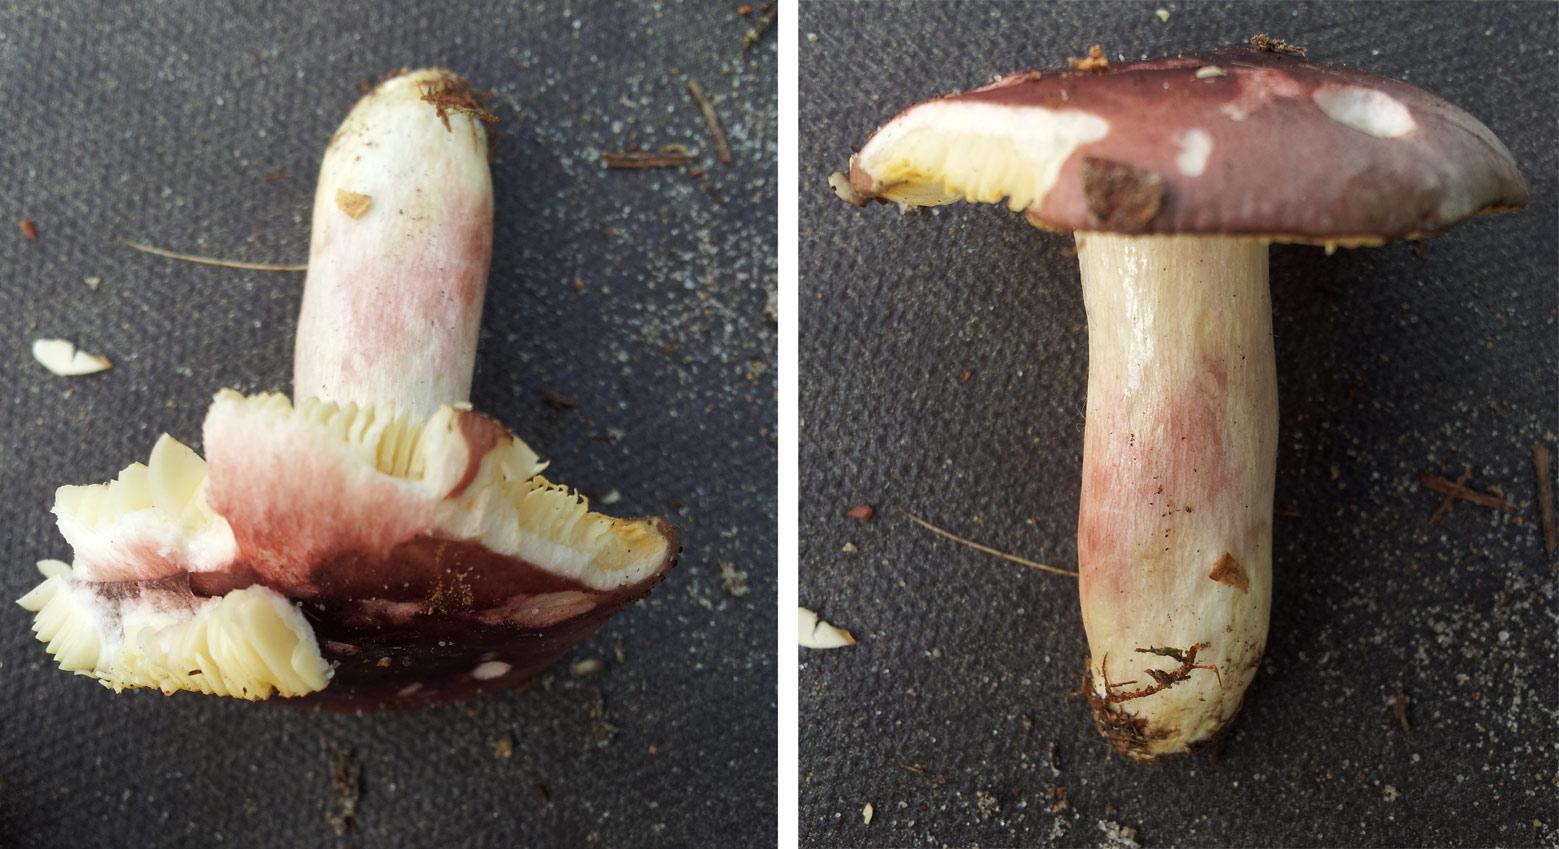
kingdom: Fungi
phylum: Basidiomycota
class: Agaricomycetes
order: Russulales
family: Russulaceae
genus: Russula
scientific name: Russula sardonia
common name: citronbladet skørhat
